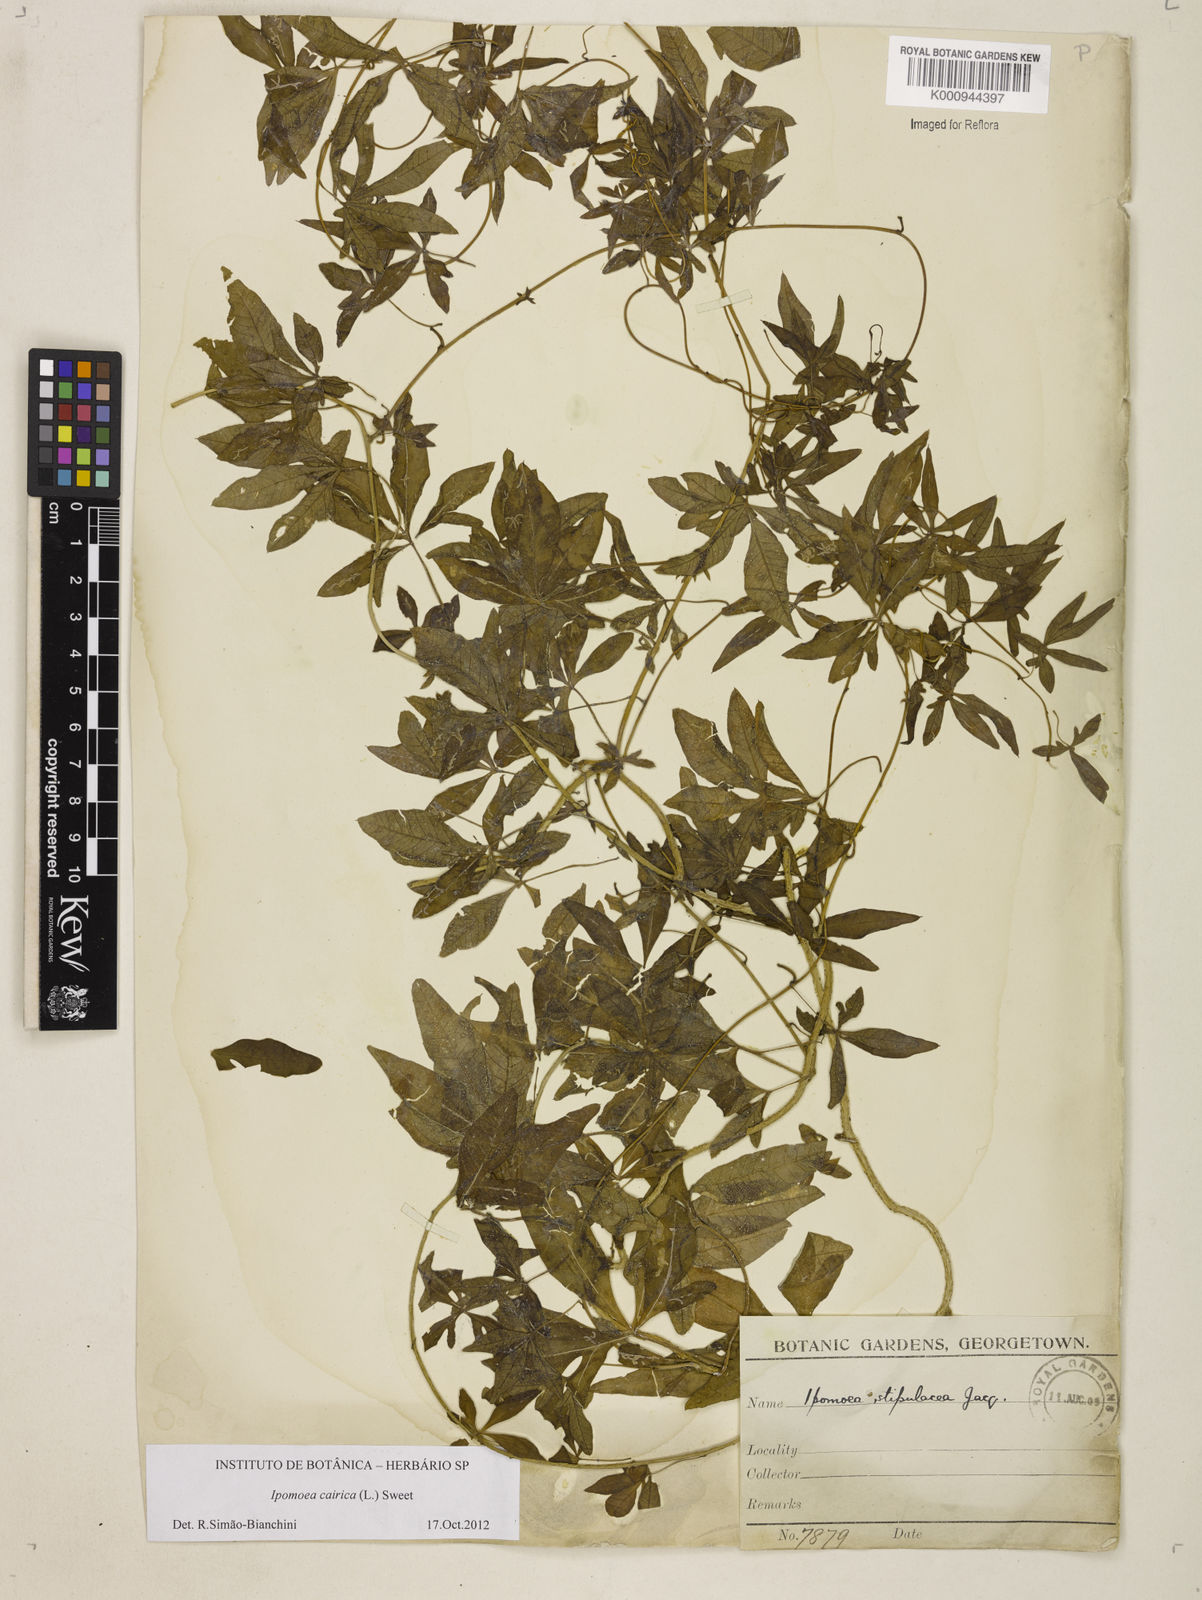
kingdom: Plantae
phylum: Tracheophyta
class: Magnoliopsida
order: Solanales
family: Convolvulaceae
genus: Ipomoea
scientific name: Ipomoea cairica
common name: Mile a minute vine
